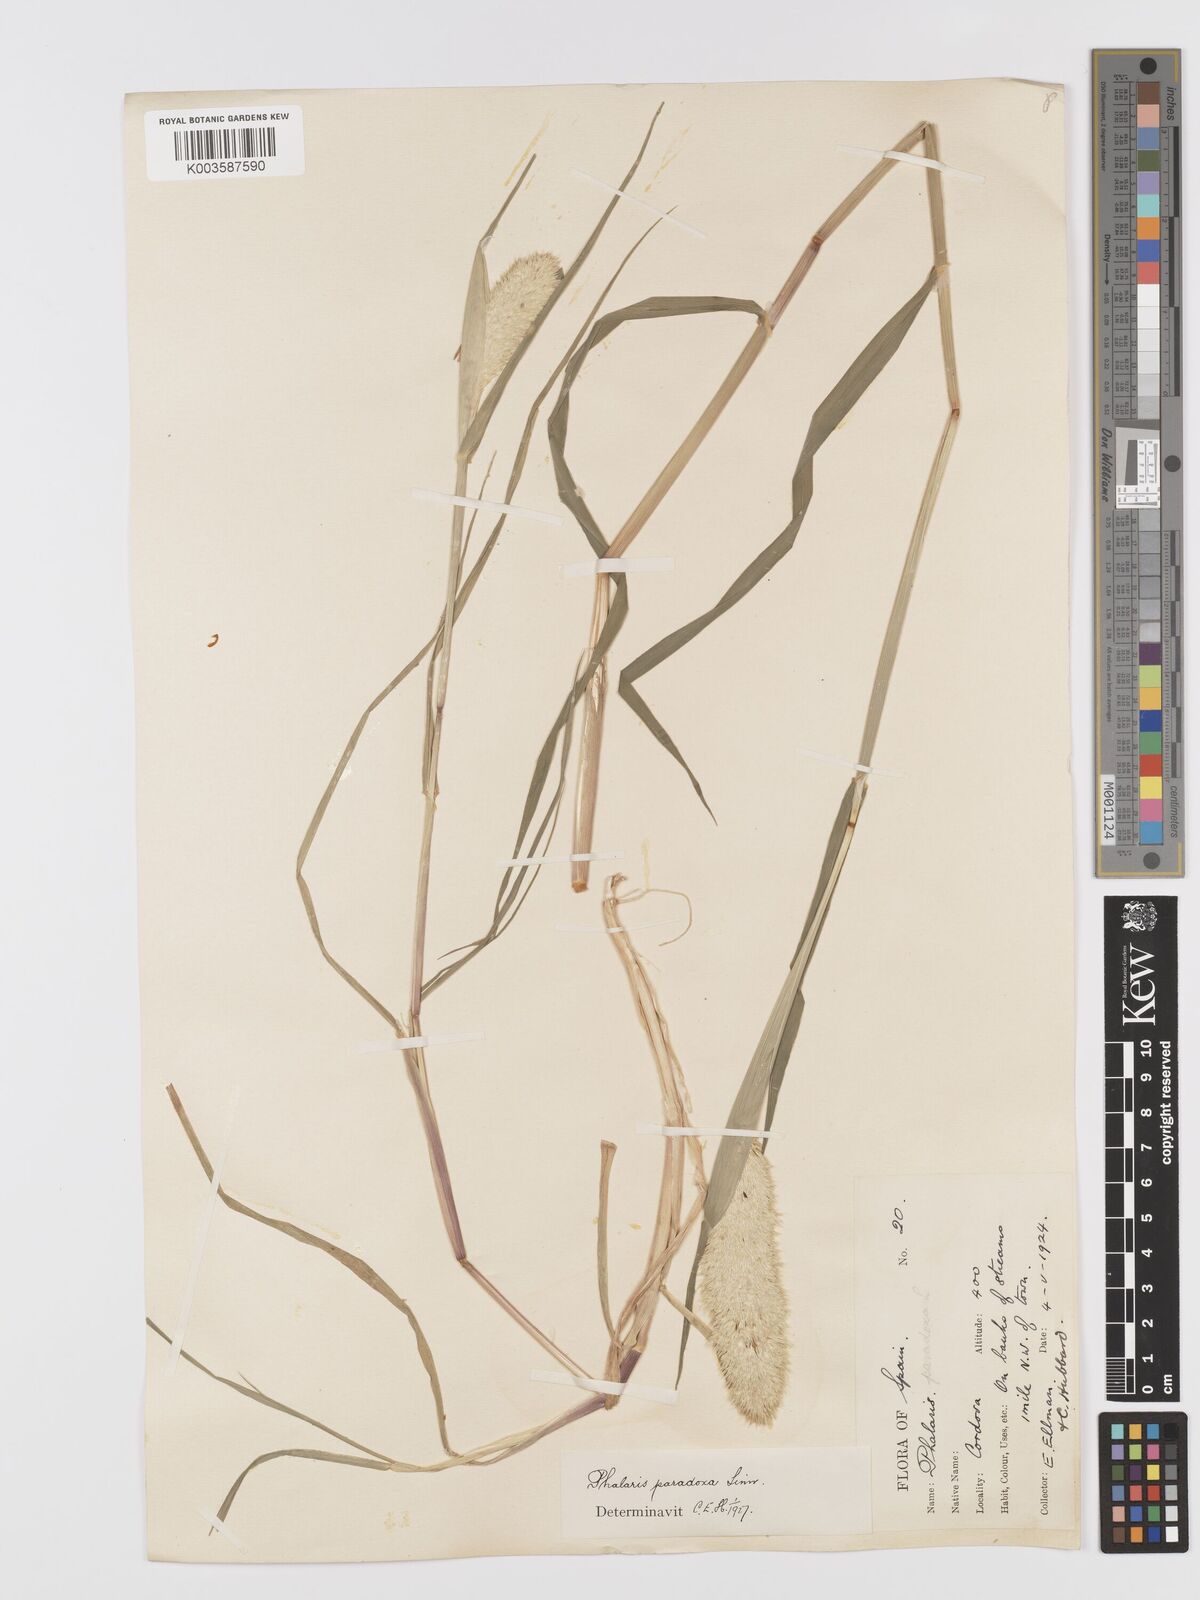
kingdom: Plantae
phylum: Tracheophyta
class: Liliopsida
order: Poales
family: Poaceae
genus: Phalaris
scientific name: Phalaris paradoxa
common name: Awned canary-grass
